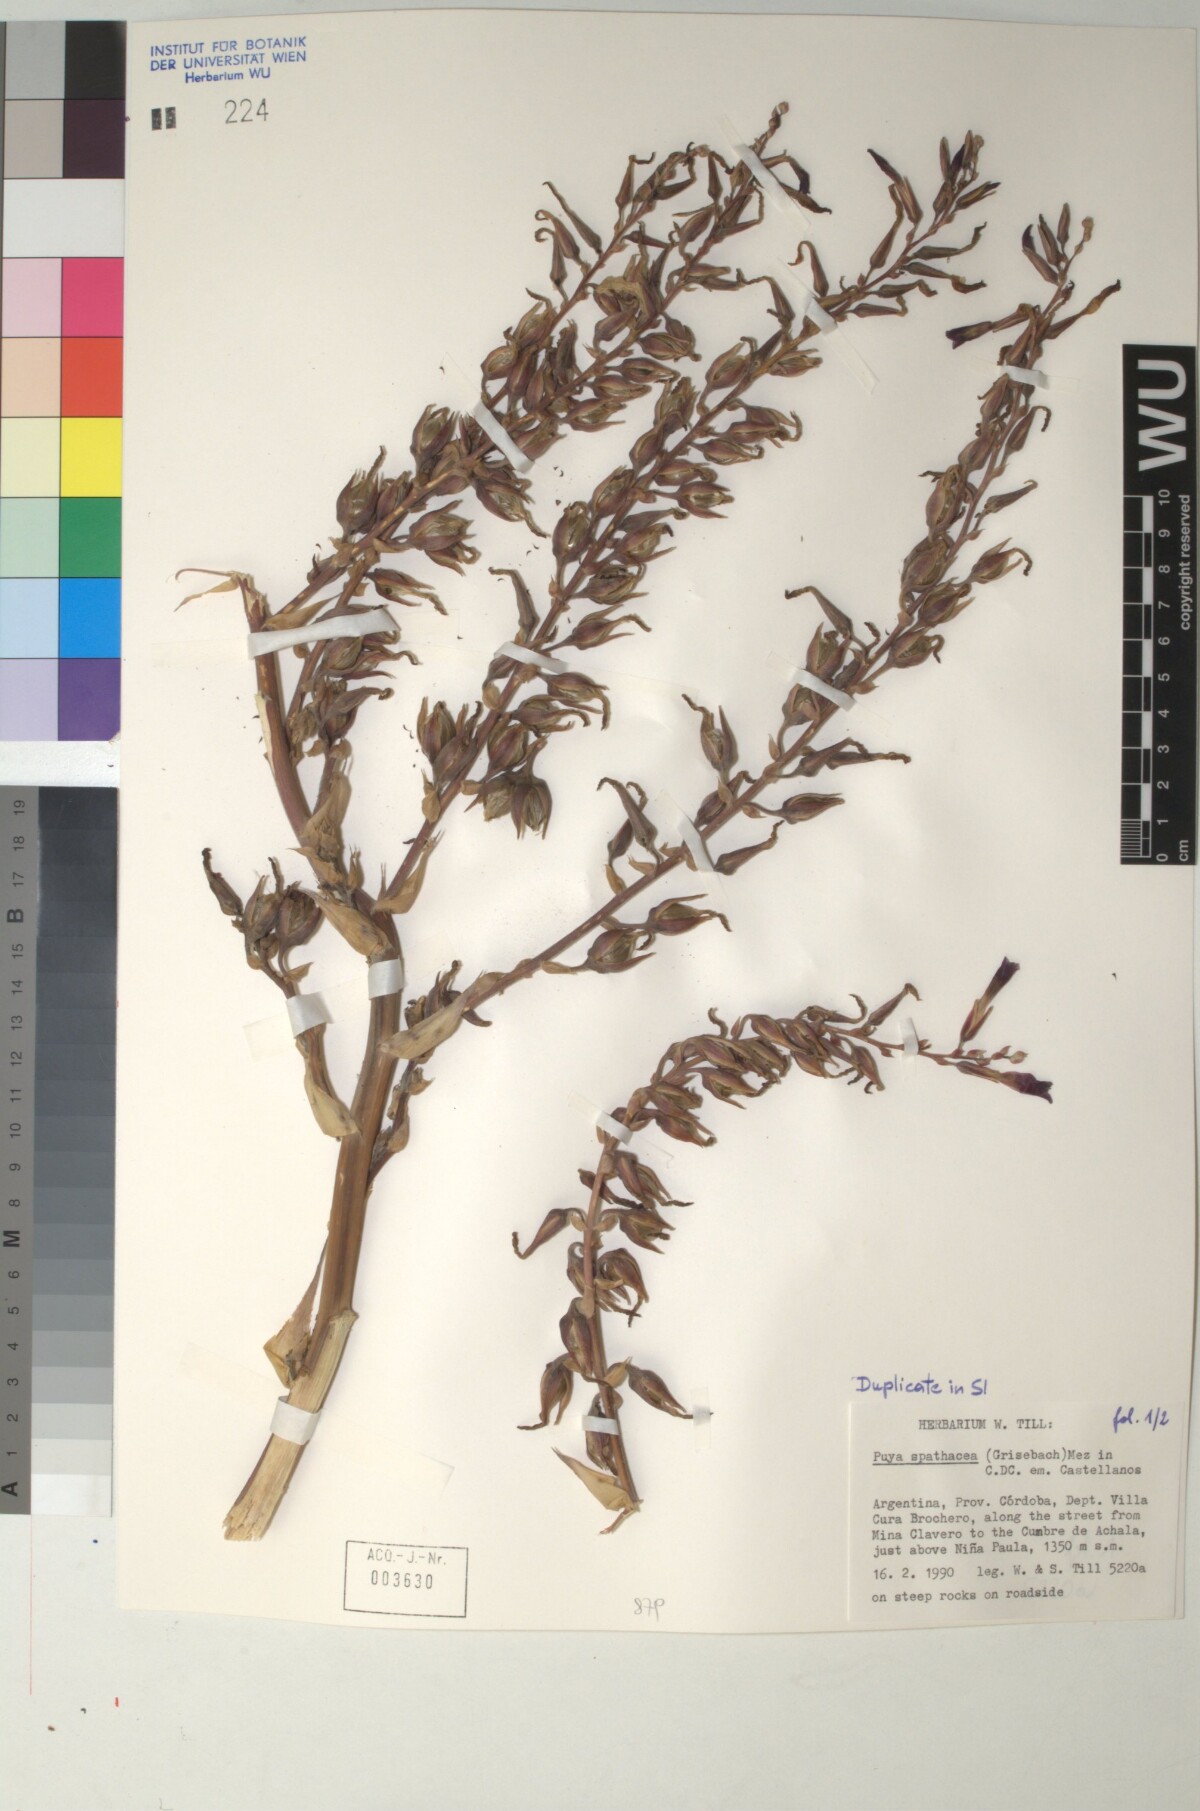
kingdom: Plantae
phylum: Tracheophyta
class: Liliopsida
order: Poales
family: Bromeliaceae
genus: Puya
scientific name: Puya spathacea
